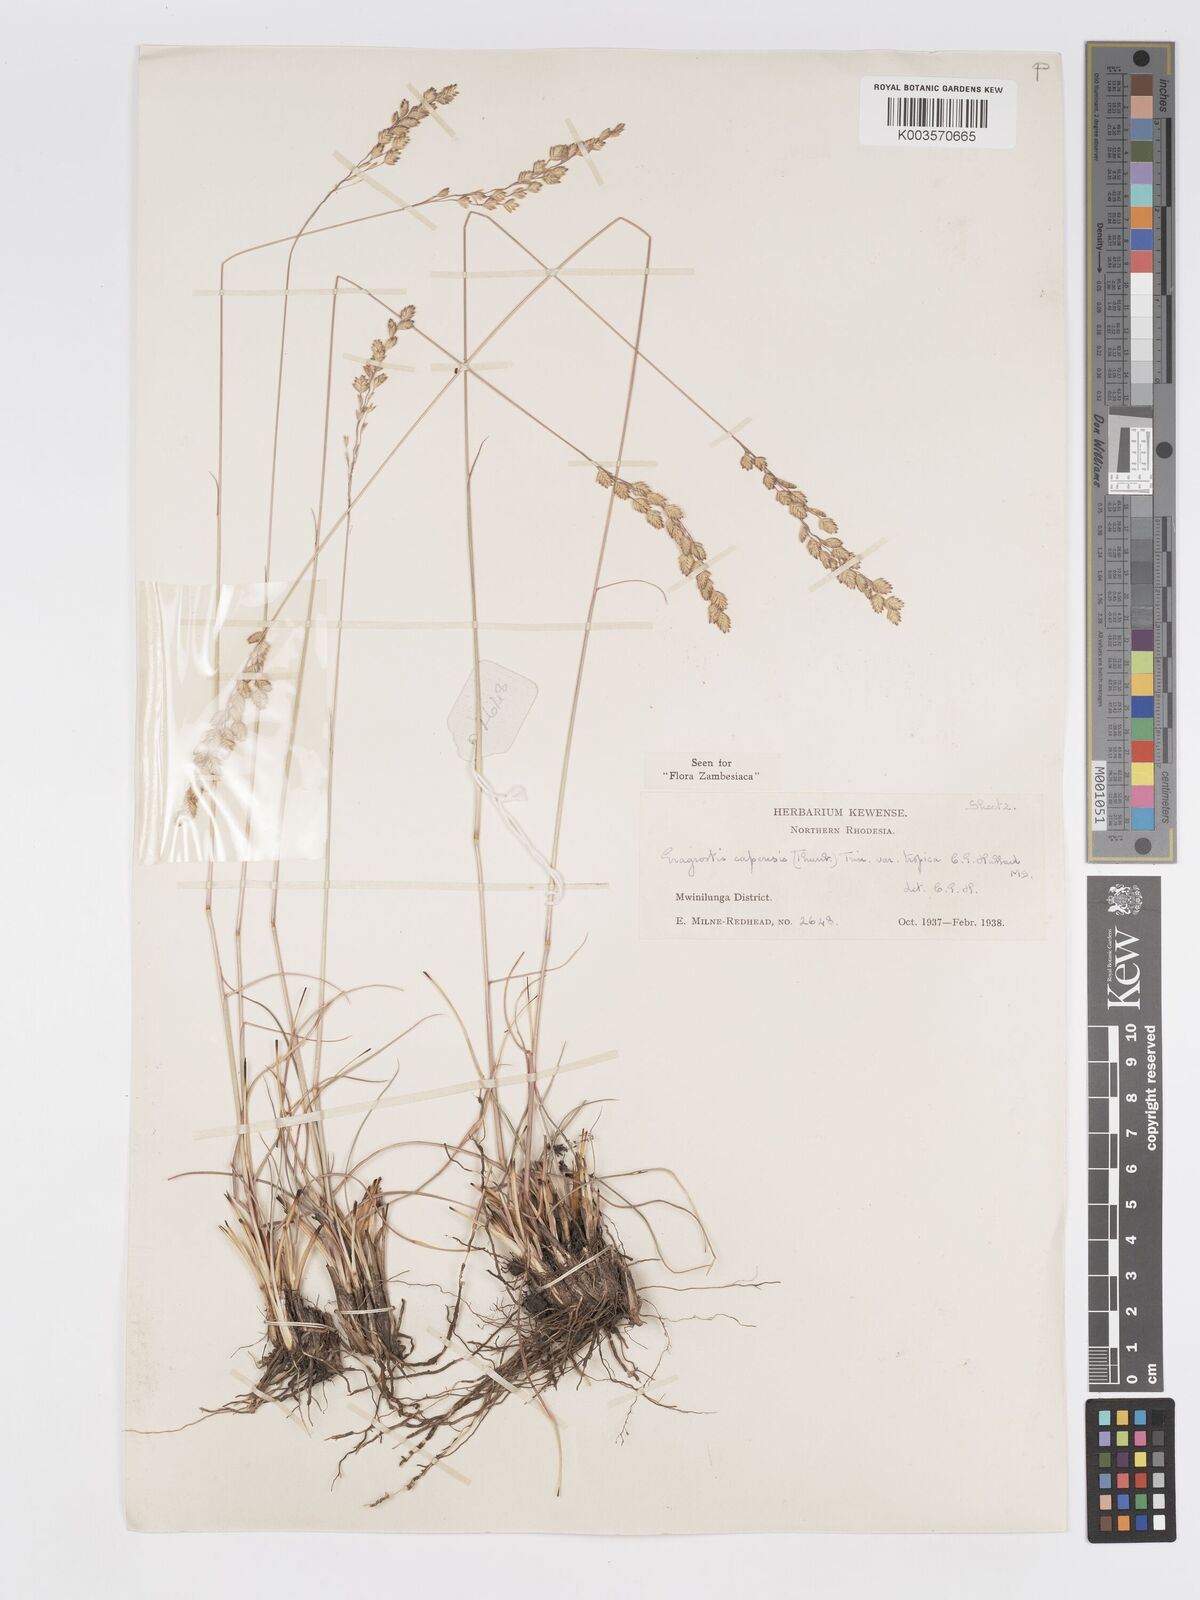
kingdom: Plantae
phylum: Tracheophyta
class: Liliopsida
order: Poales
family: Poaceae
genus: Eragrostis
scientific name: Eragrostis capensis
